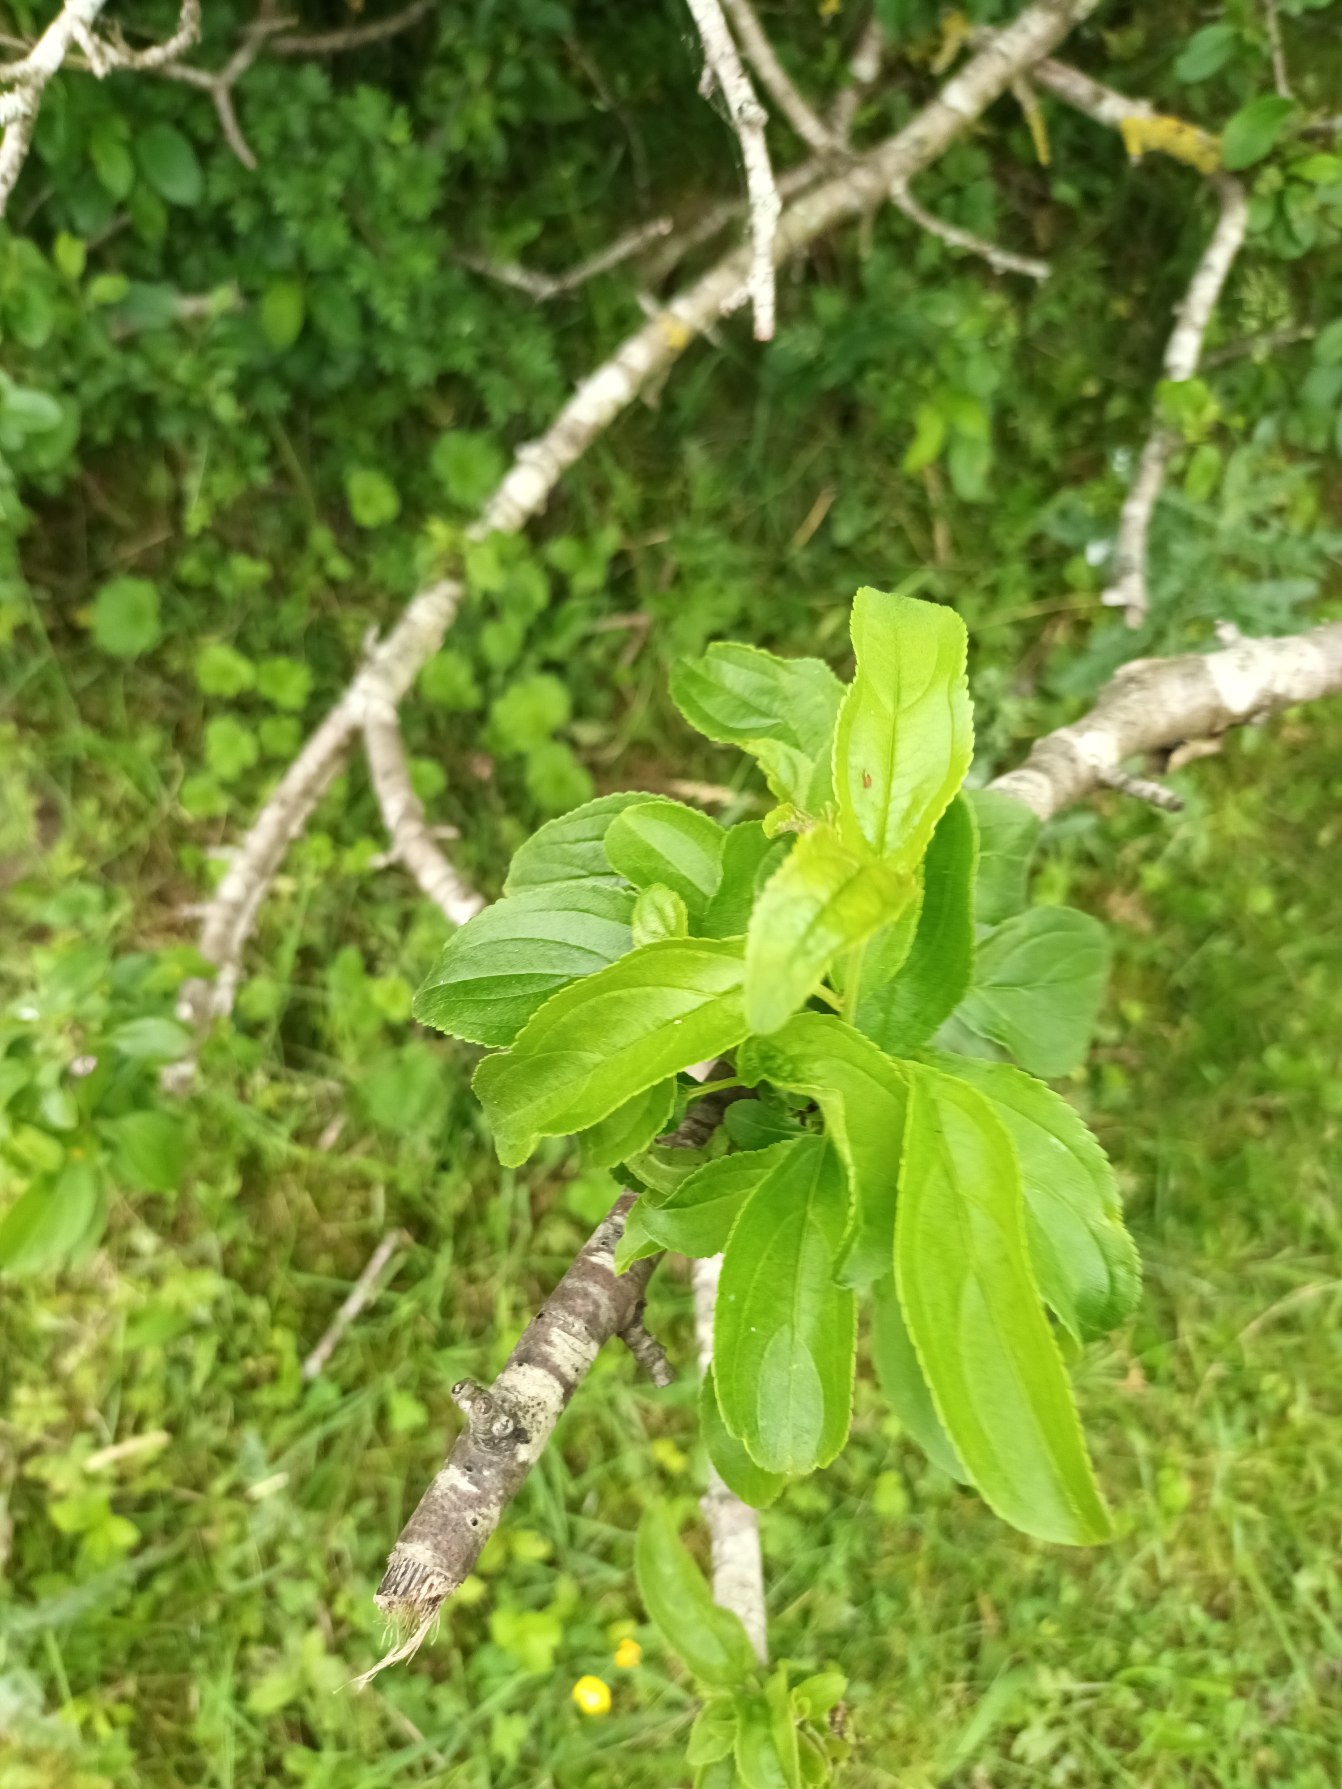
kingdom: Plantae
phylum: Tracheophyta
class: Magnoliopsida
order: Rosales
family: Rhamnaceae
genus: Rhamnus
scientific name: Rhamnus cathartica
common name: Vrietorn
